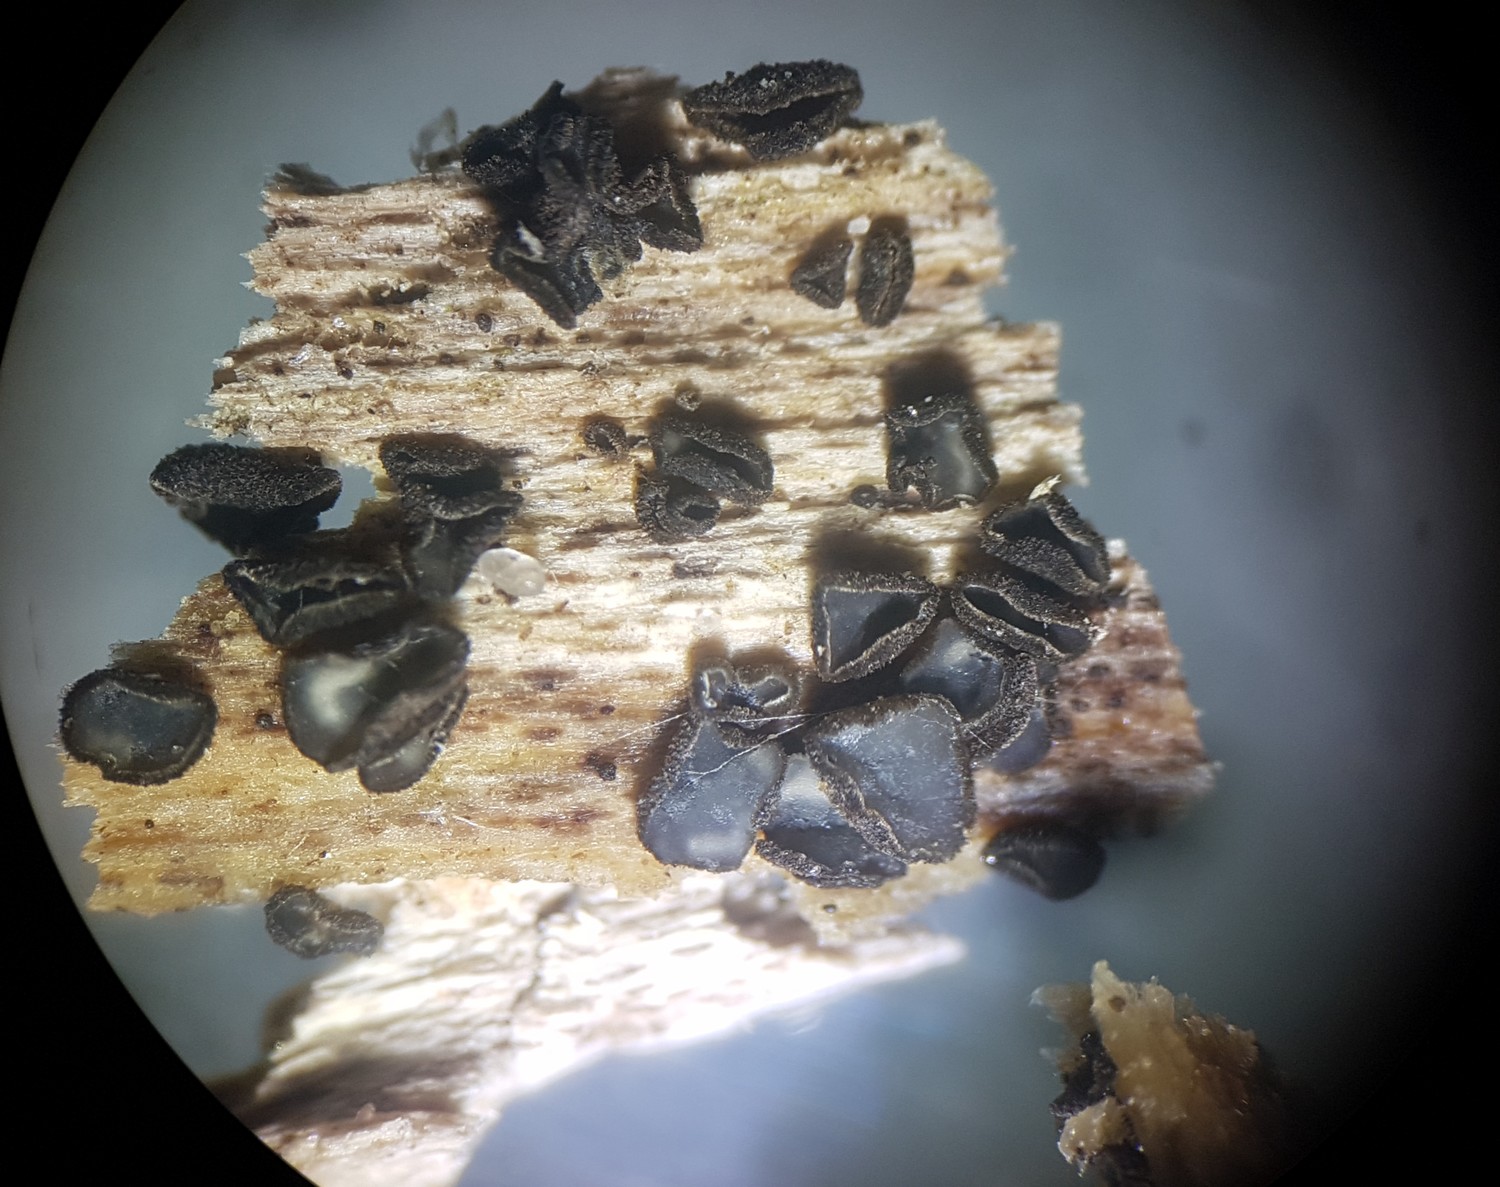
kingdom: Fungi
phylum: Ascomycota
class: Leotiomycetes
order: Helotiales
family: Mollisiaceae
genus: Mollisia
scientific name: Mollisia ligni
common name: ved-gråskive
